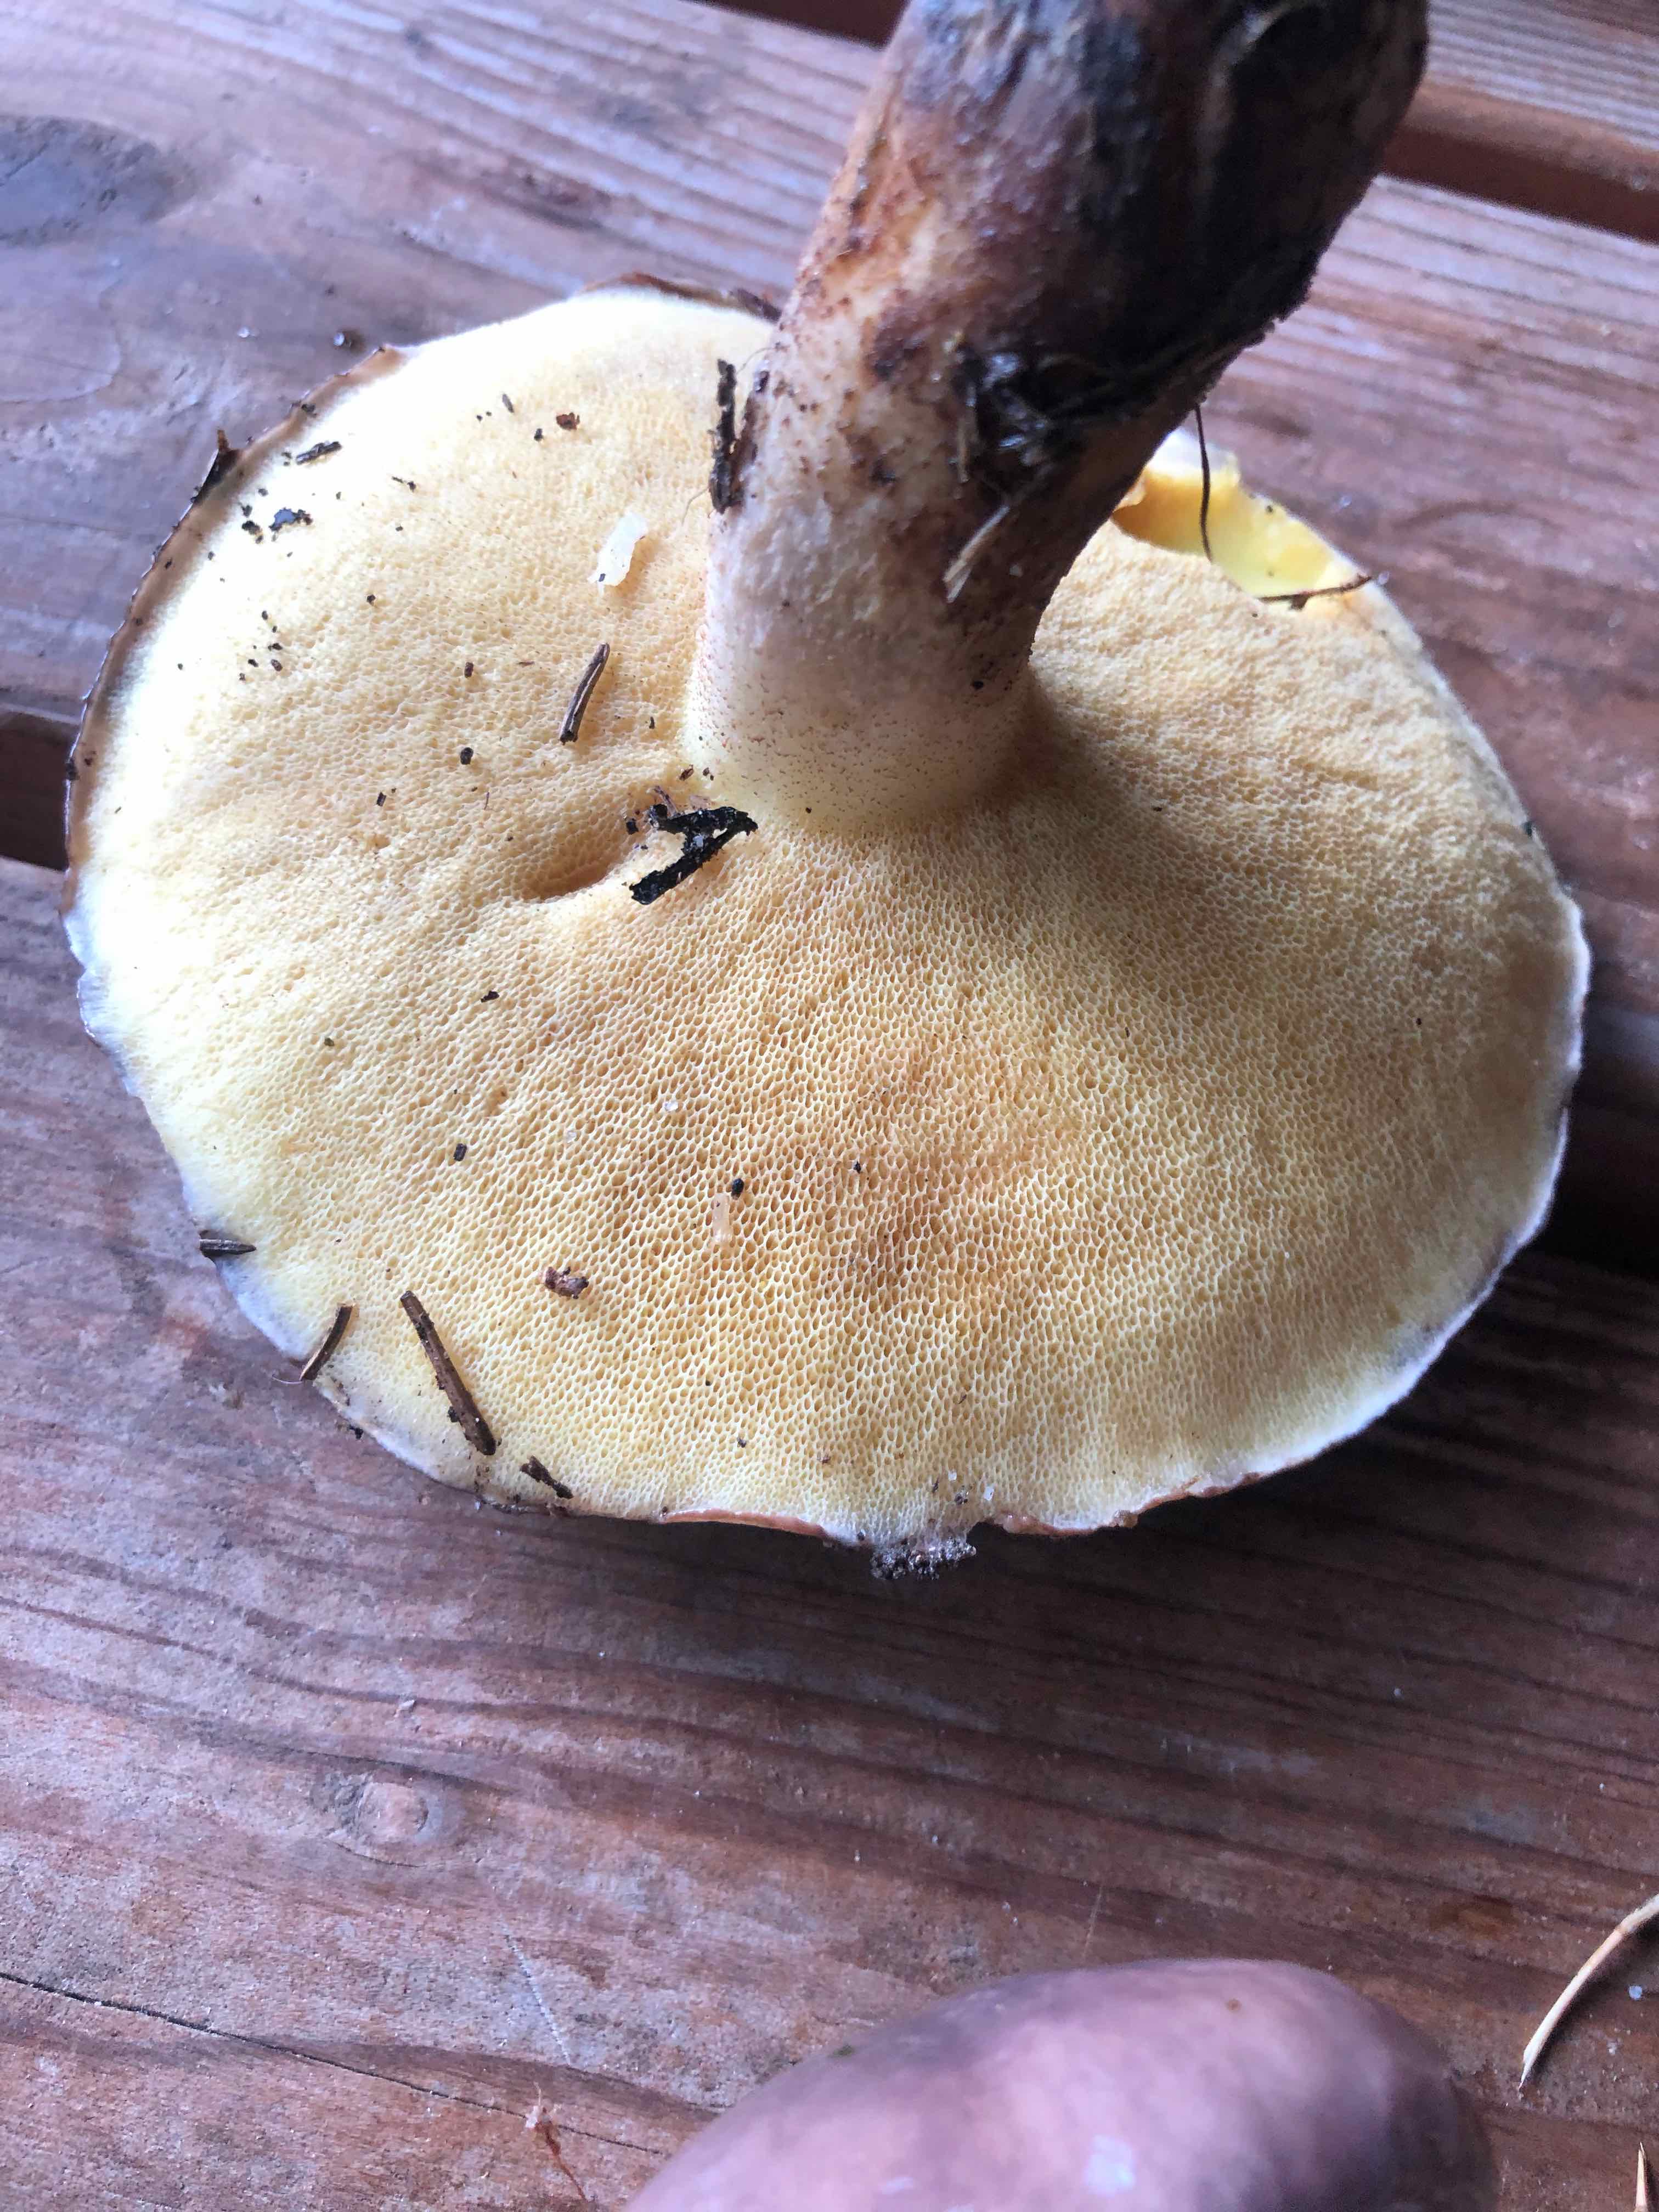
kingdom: Fungi
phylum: Basidiomycota
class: Agaricomycetes
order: Boletales
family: Suillaceae
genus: Suillus
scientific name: Suillus
